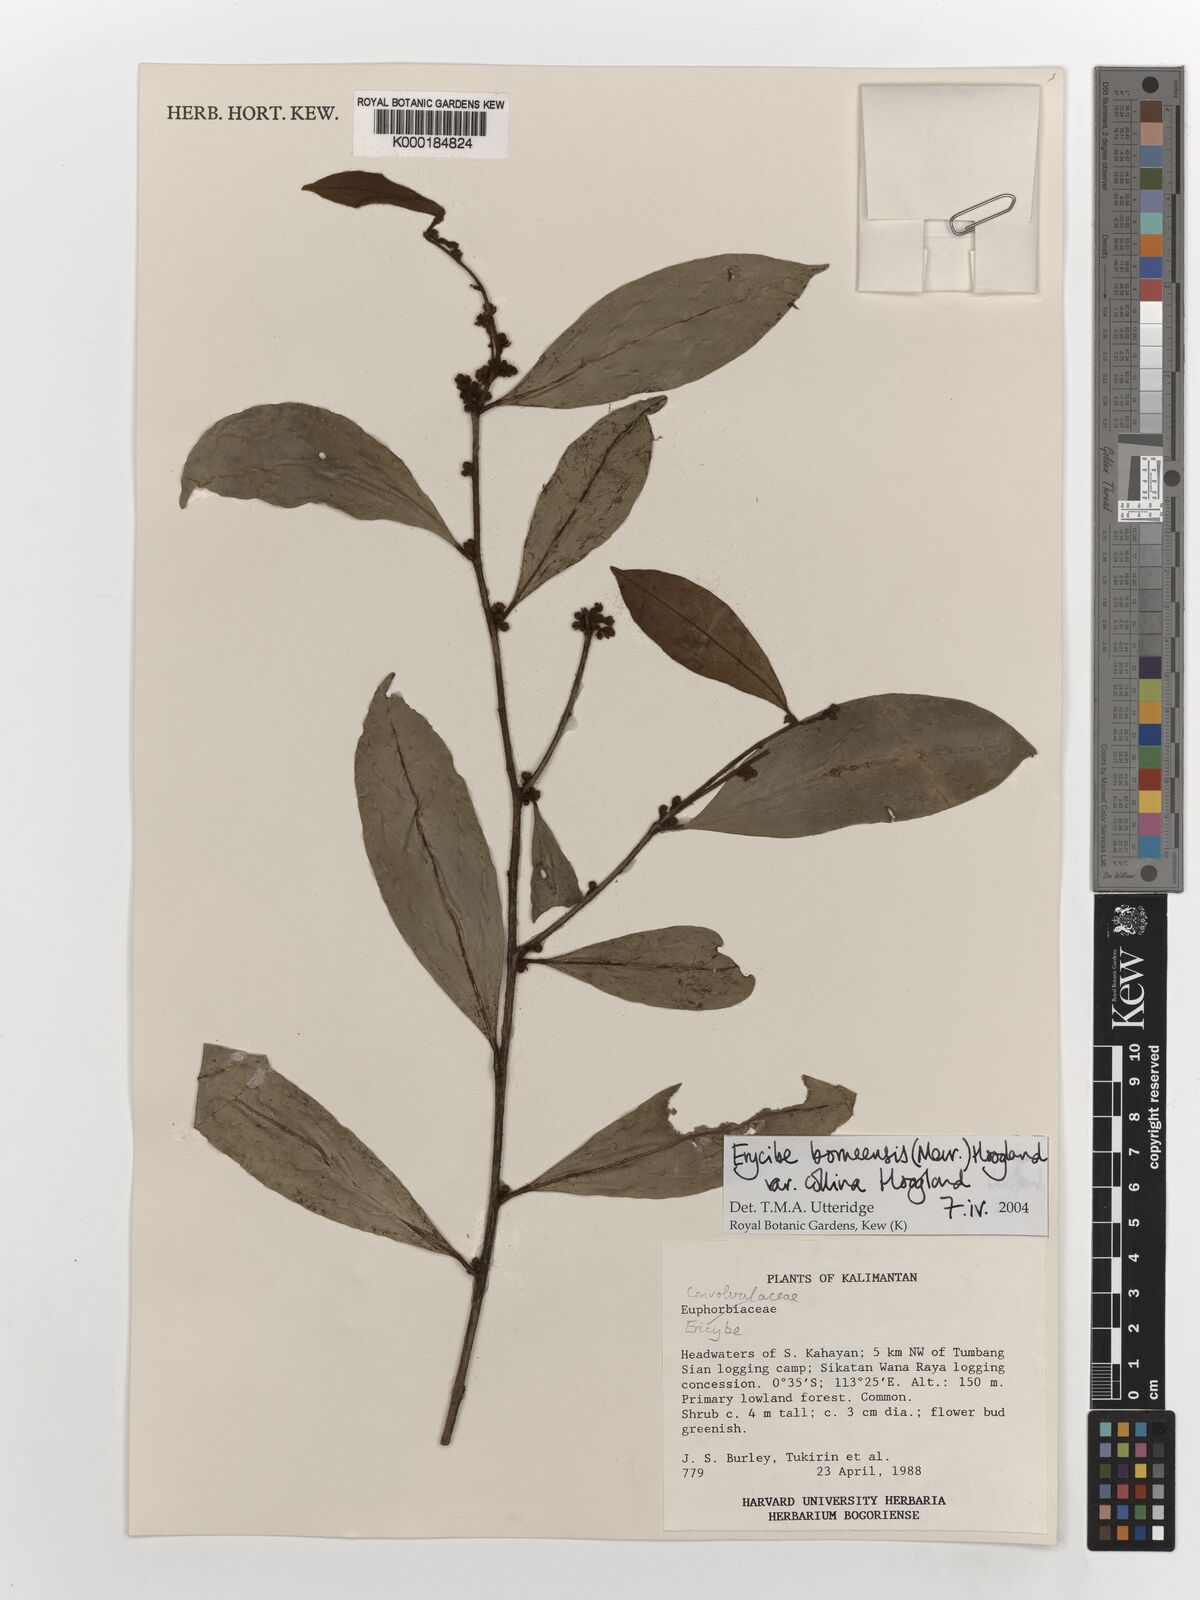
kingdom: Plantae
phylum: Tracheophyta
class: Magnoliopsida
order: Solanales
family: Convolvulaceae
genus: Erycibe
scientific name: Erycibe borneensis
